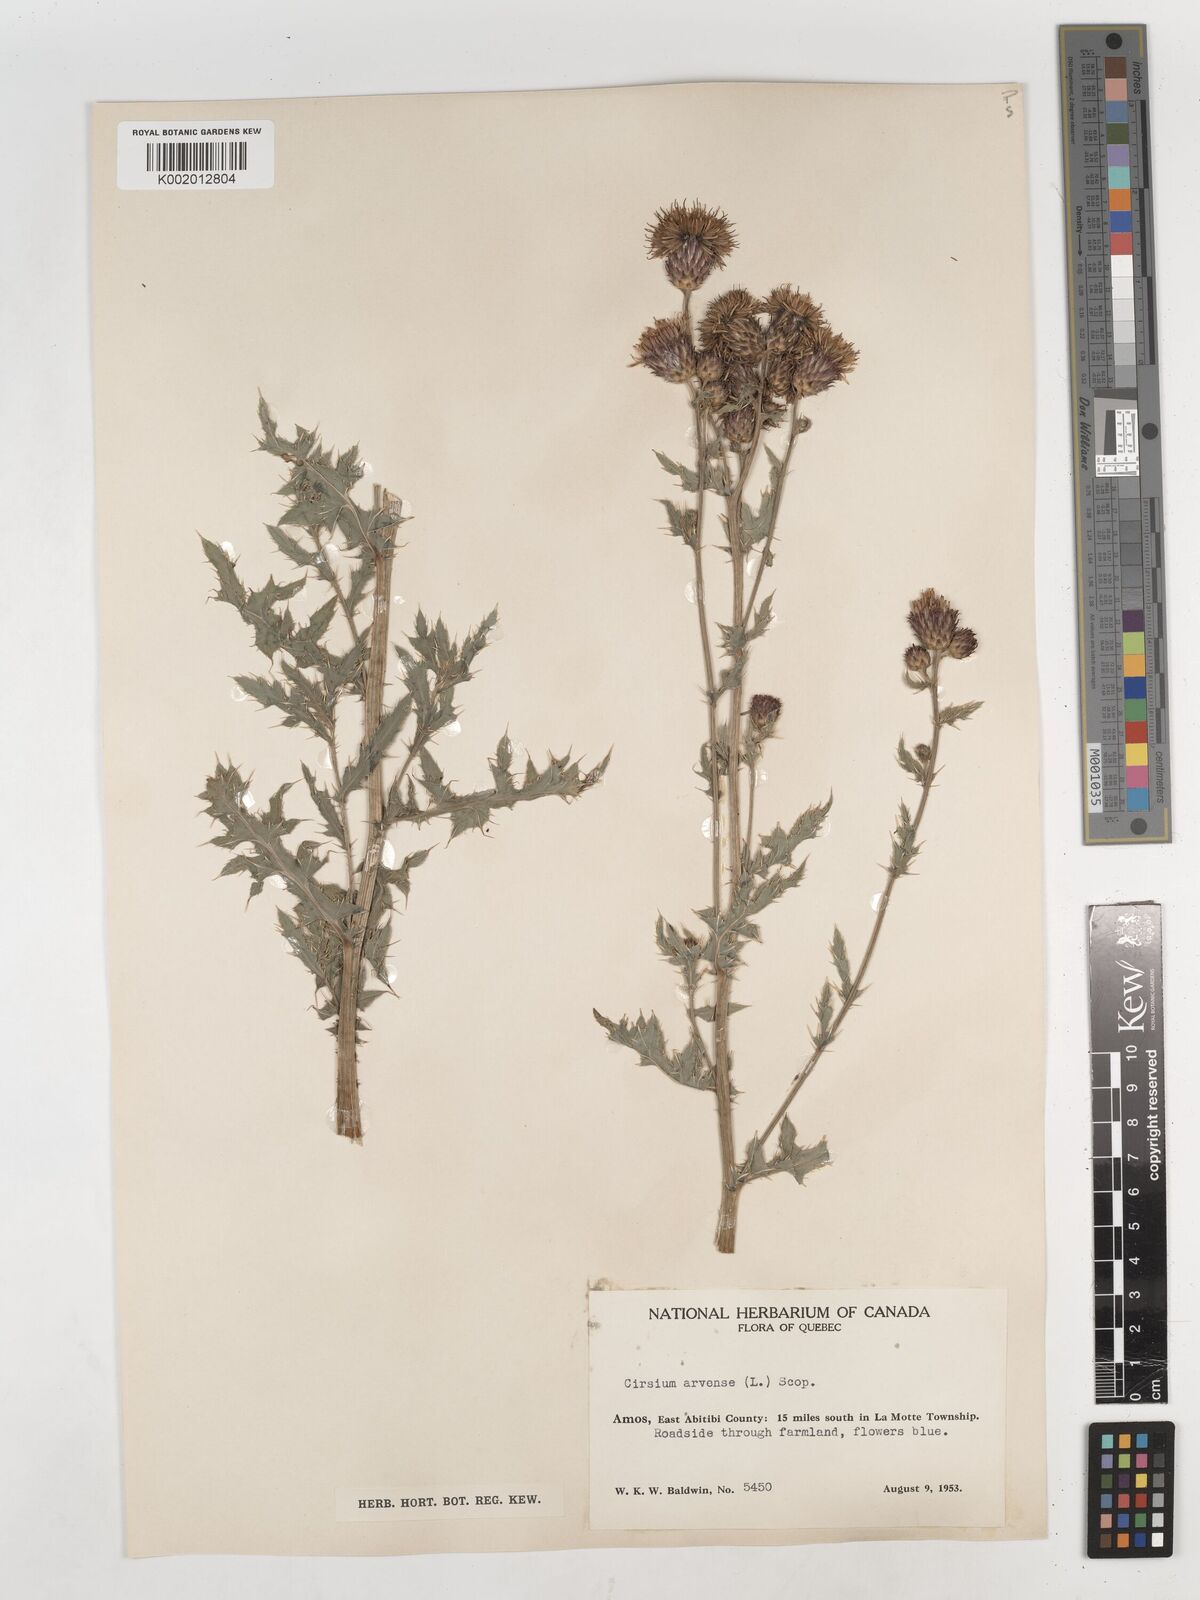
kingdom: Plantae
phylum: Tracheophyta
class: Magnoliopsida
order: Asterales
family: Asteraceae
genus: Cirsium
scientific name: Cirsium arvense
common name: Creeping thistle
